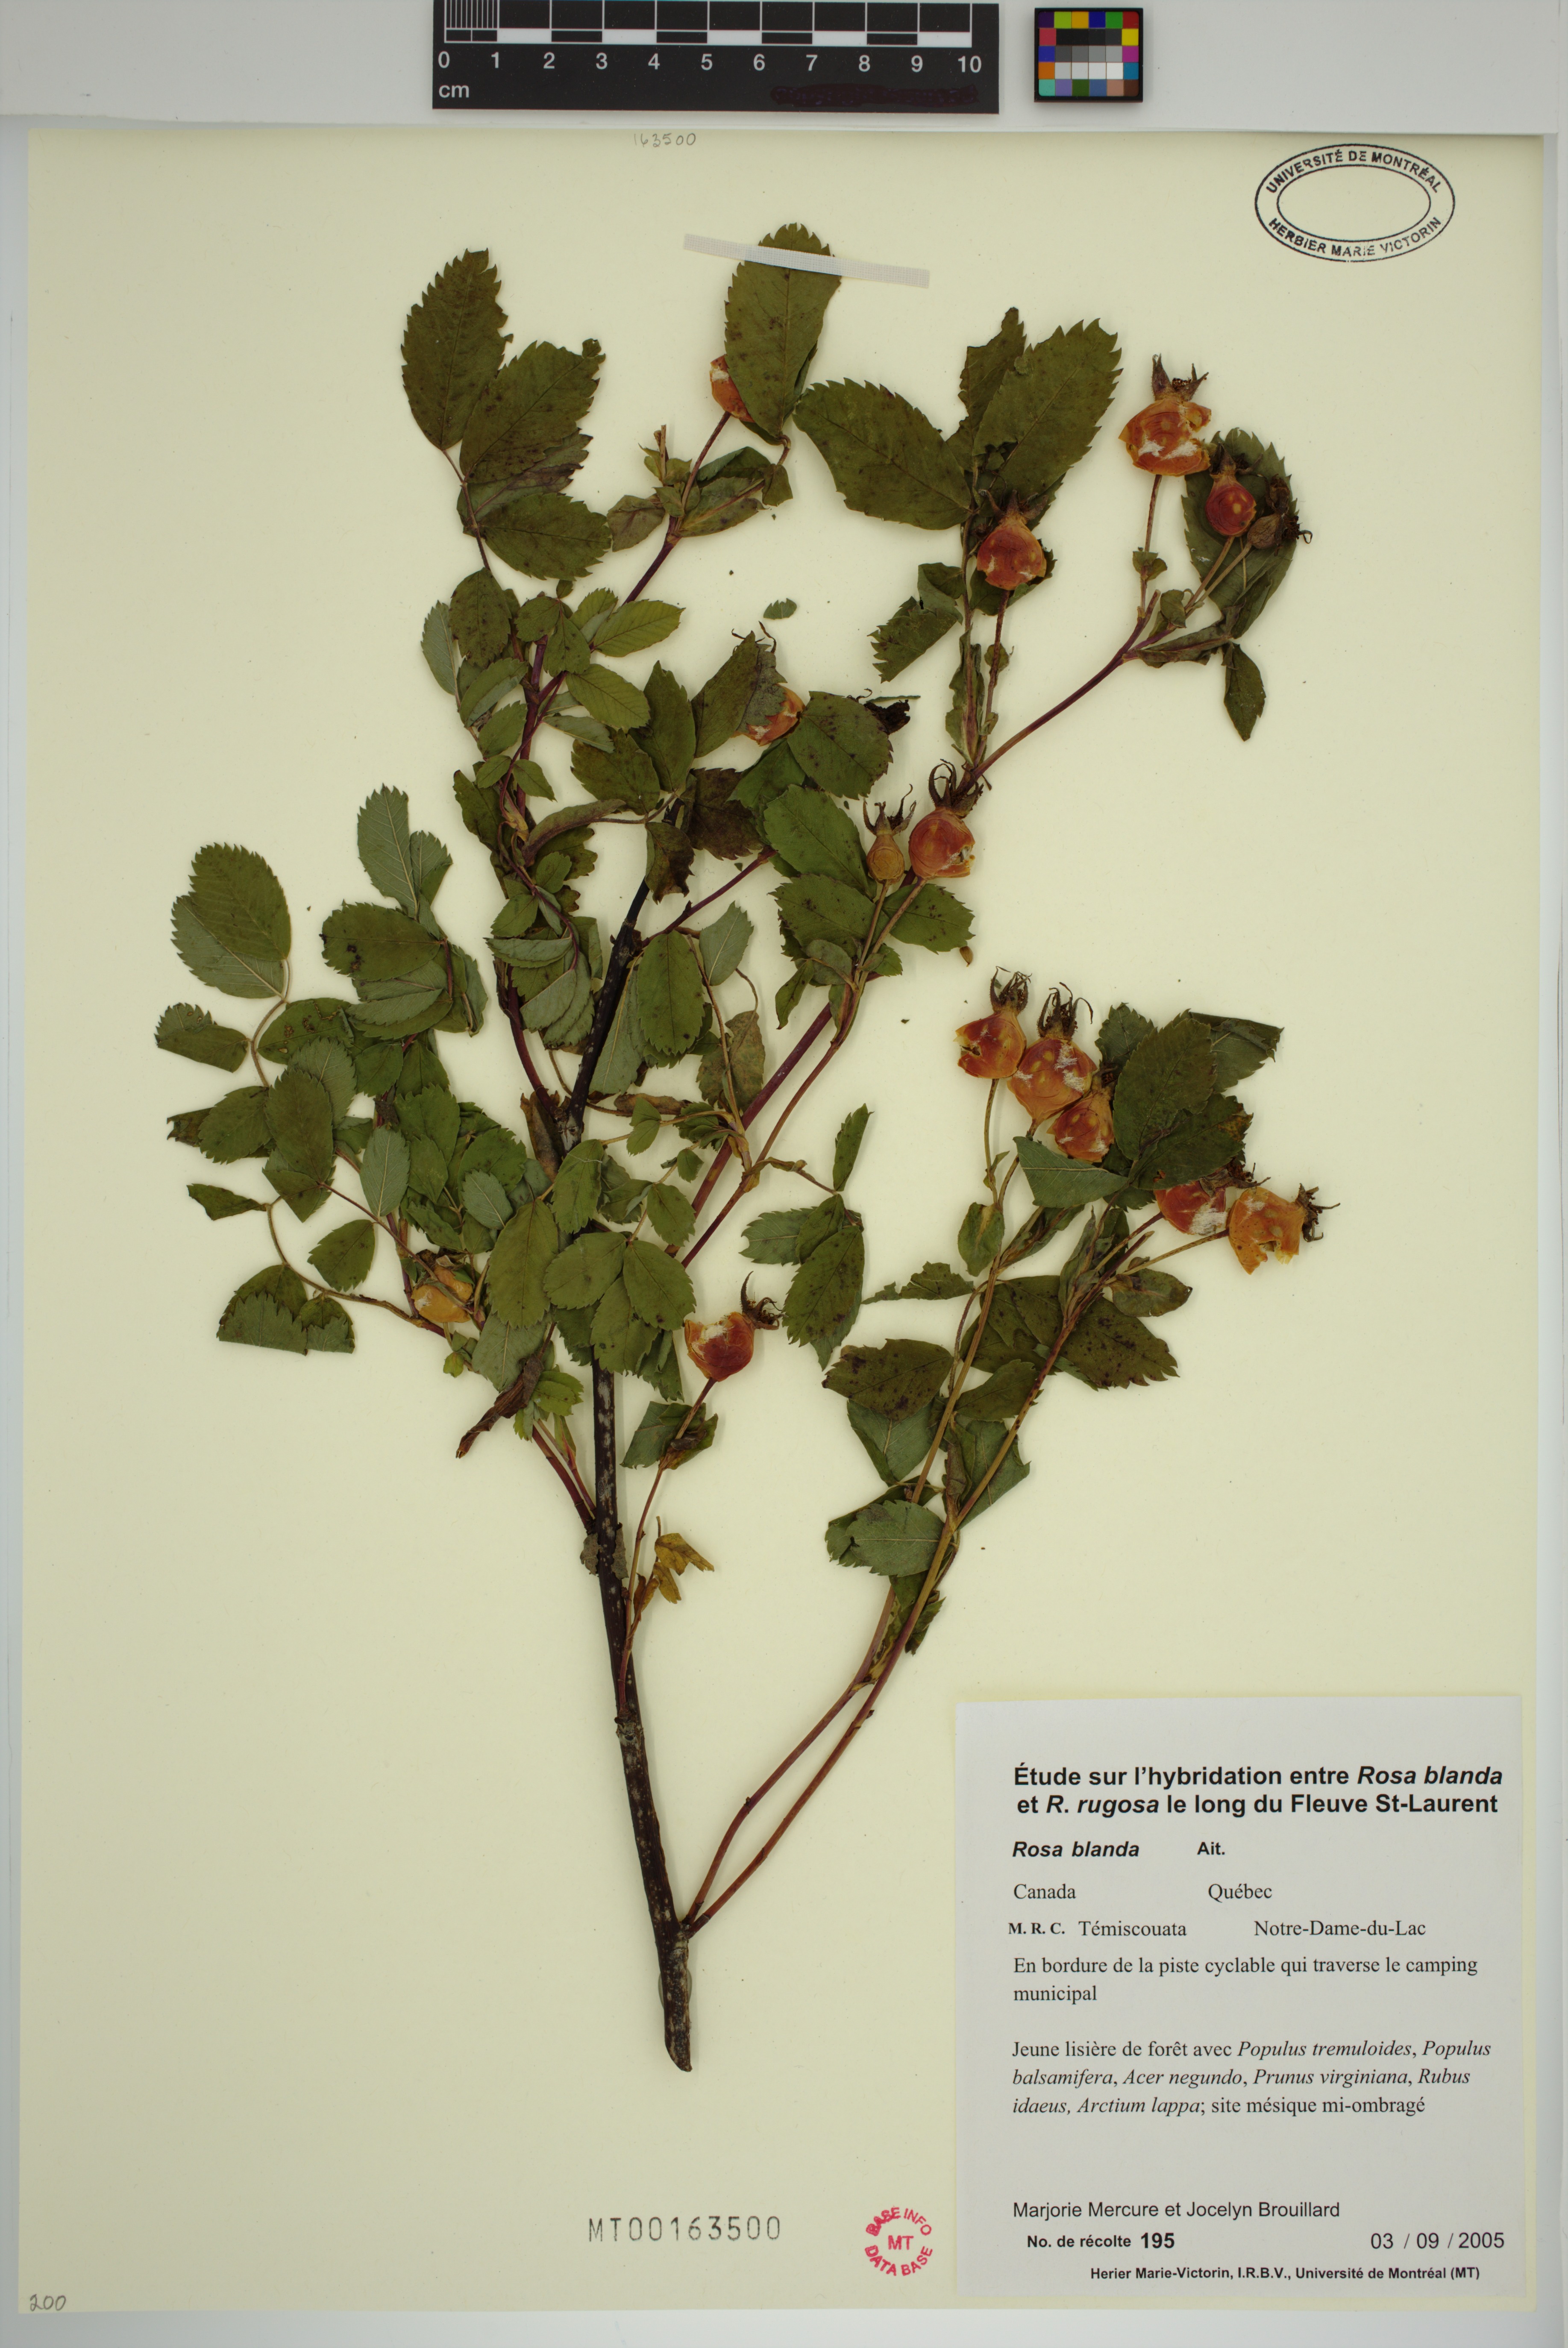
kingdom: Plantae
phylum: Tracheophyta
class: Magnoliopsida
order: Rosales
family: Rosaceae
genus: Rosa
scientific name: Rosa blanda
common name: Smooth rose
